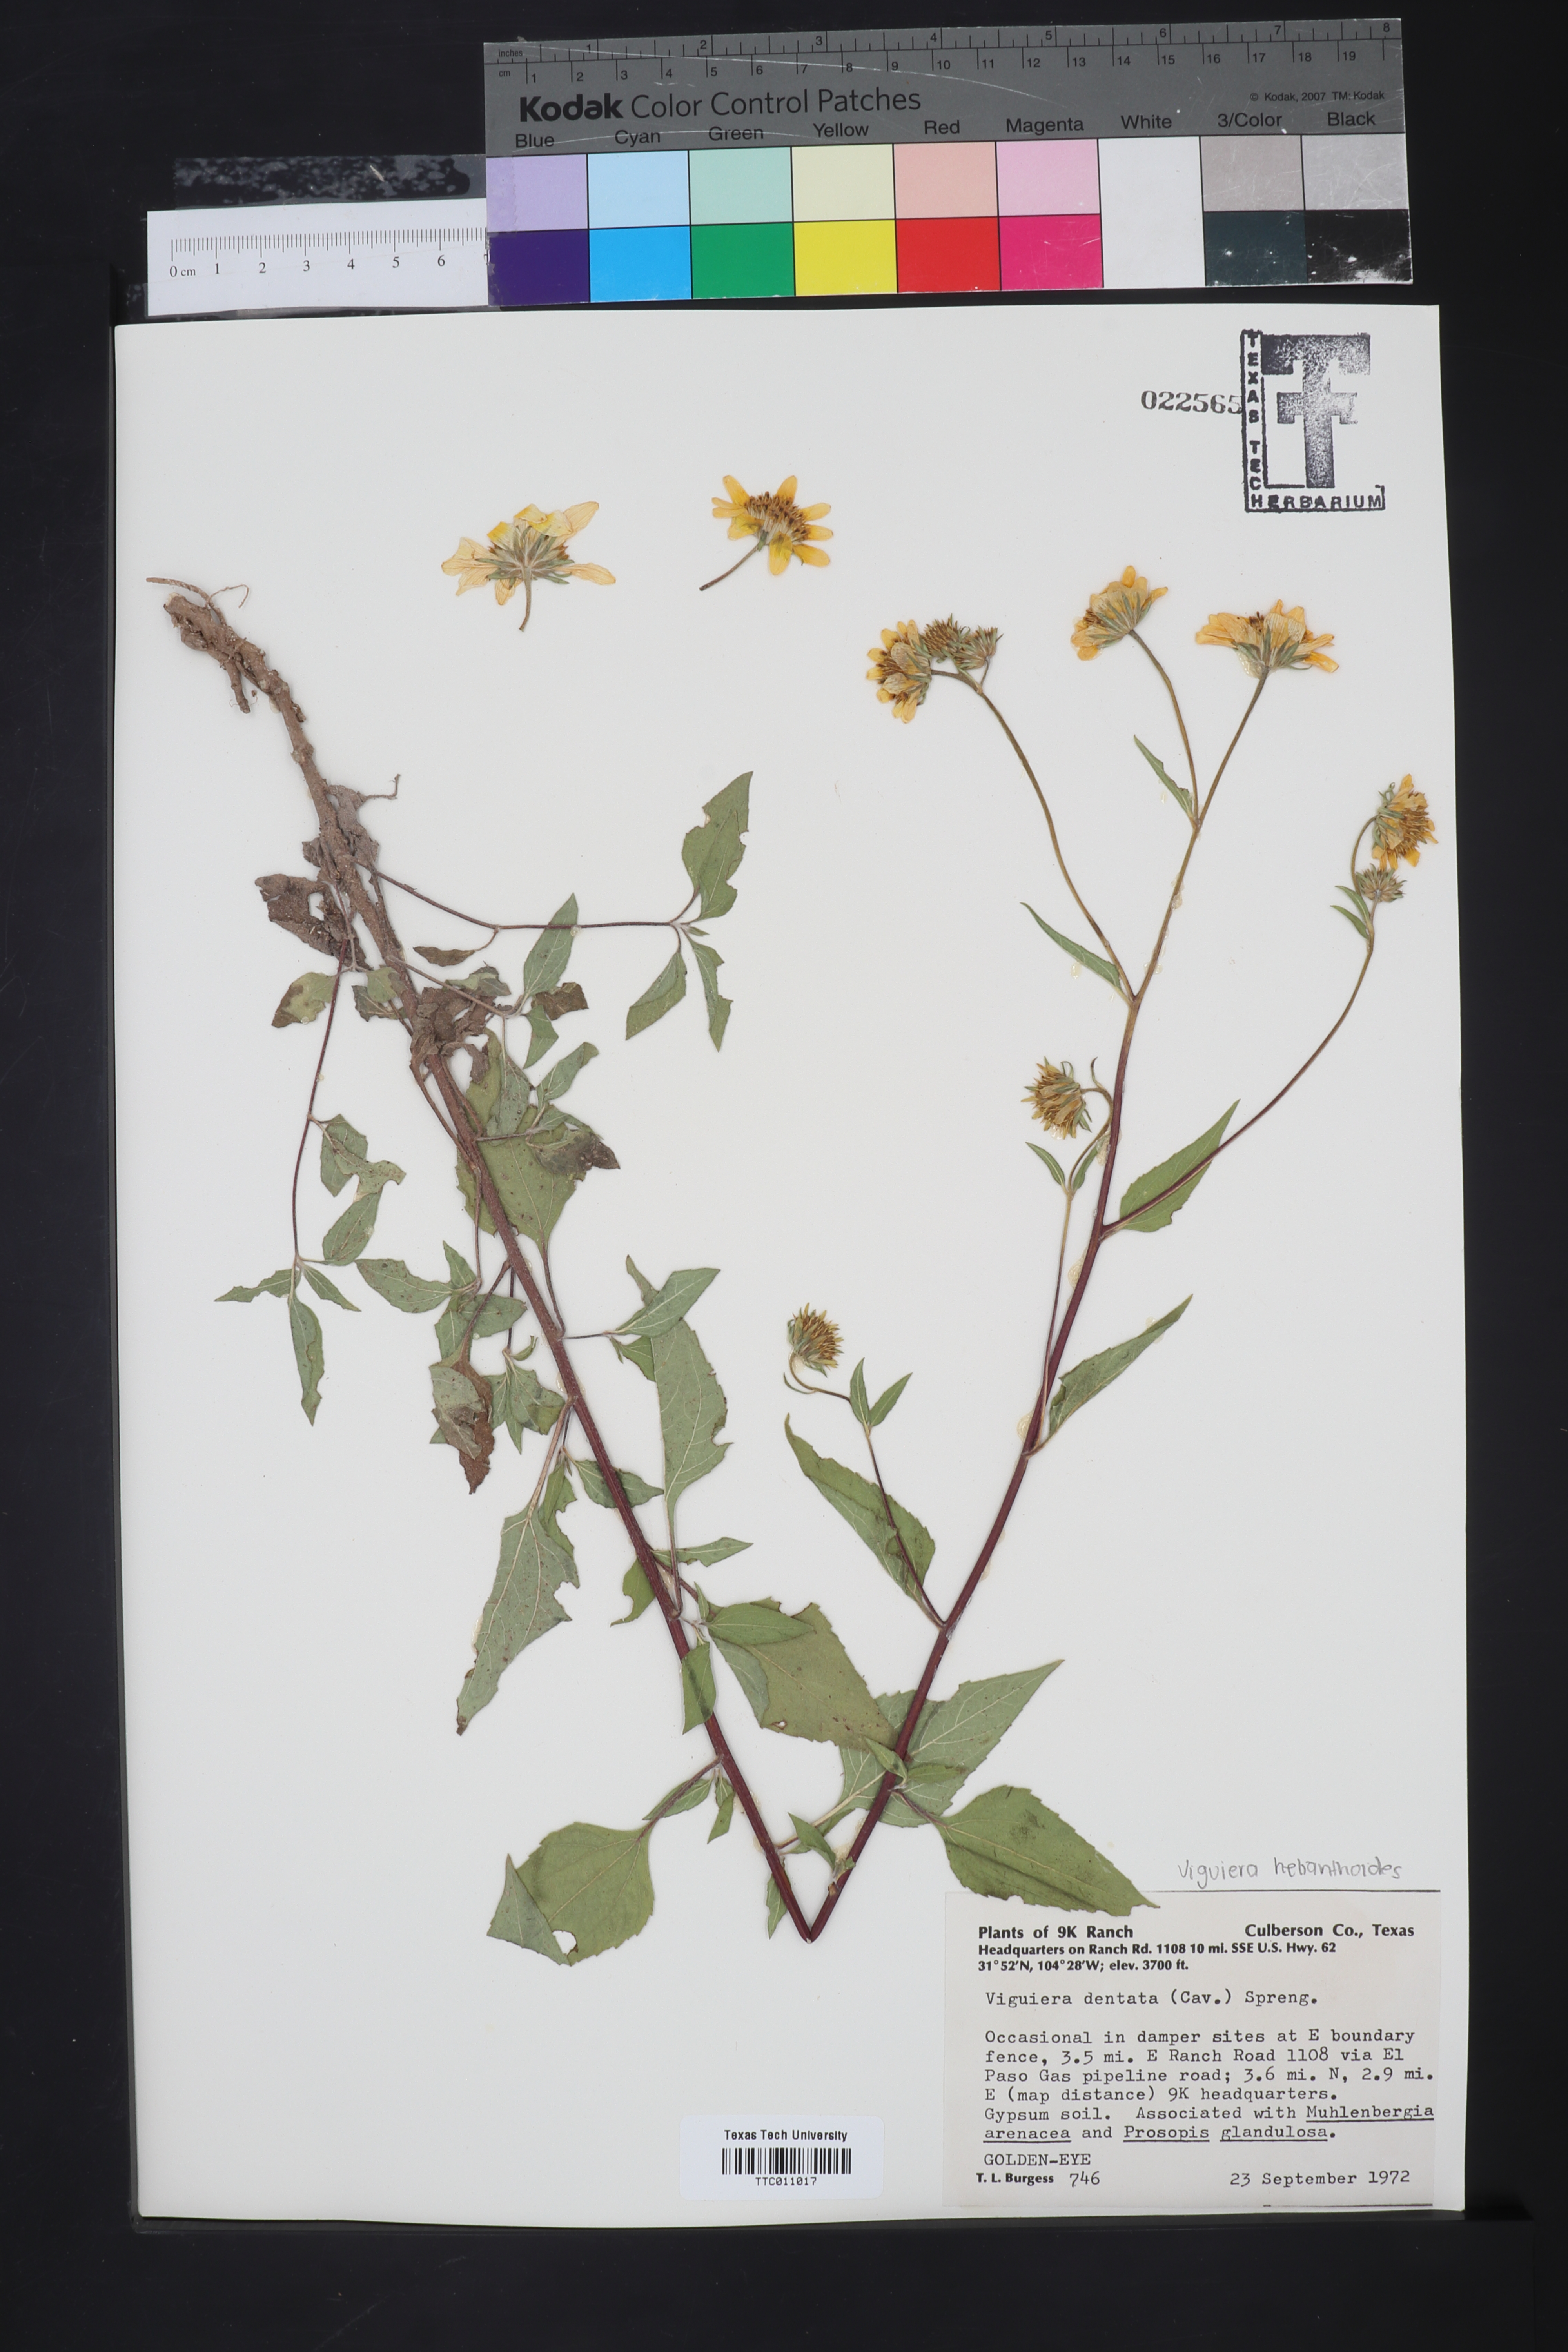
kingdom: Plantae
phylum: Tracheophyta
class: Magnoliopsida
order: Asterales
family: Asteraceae
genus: Viguiera
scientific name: Viguiera dentata
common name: Toothleaf
